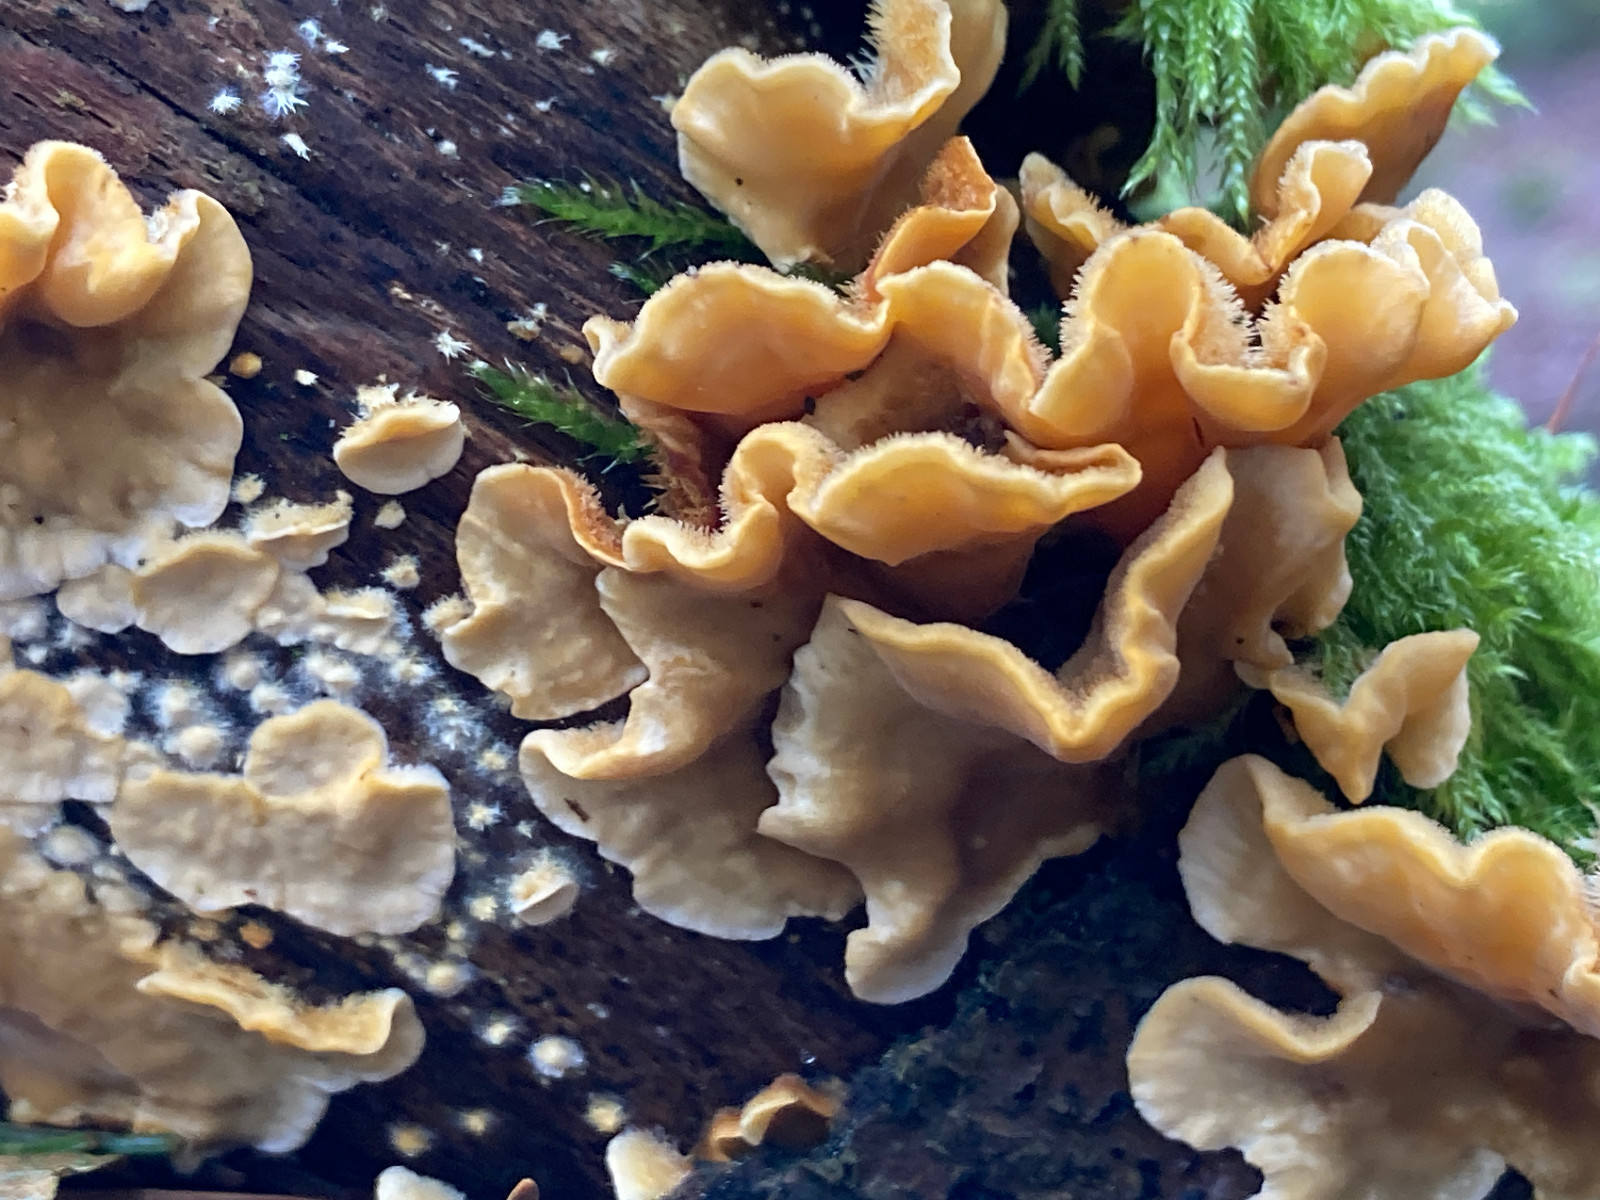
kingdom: Fungi
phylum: Basidiomycota
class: Agaricomycetes
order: Russulales
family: Stereaceae
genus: Stereum
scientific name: Stereum hirsutum
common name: håret lædersvamp
